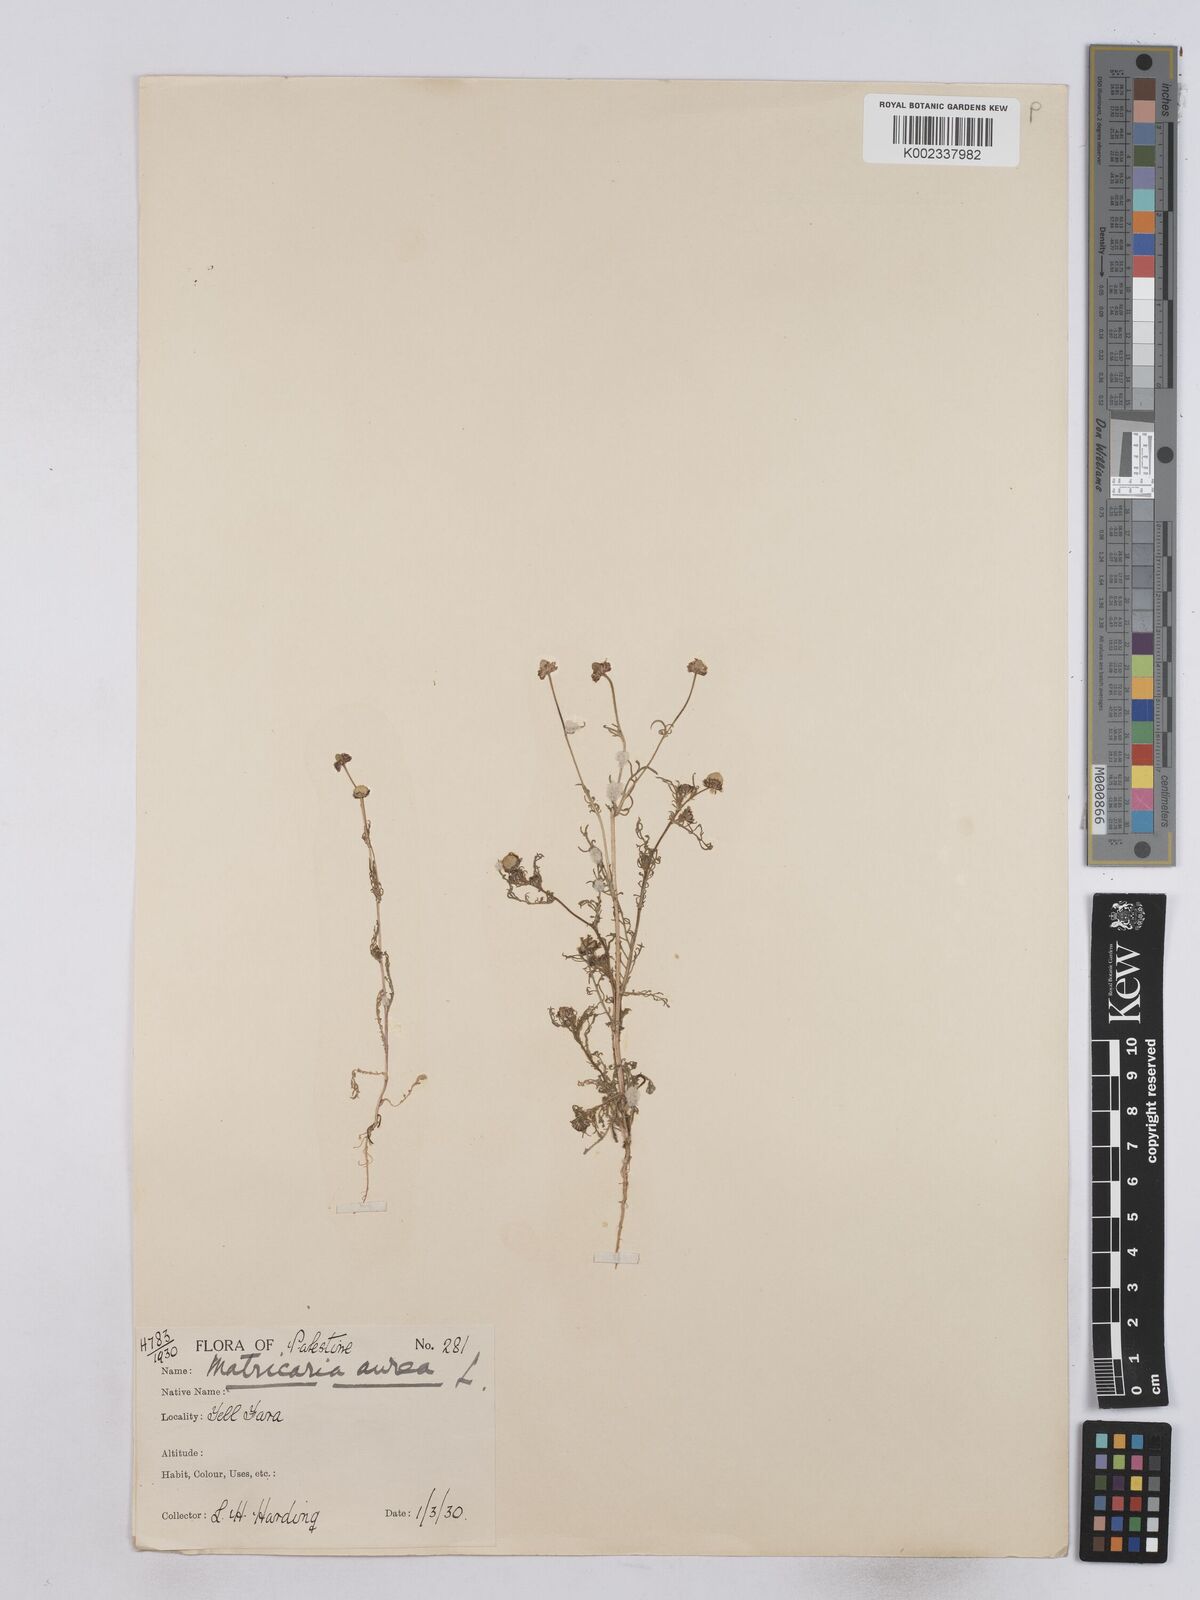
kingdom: Plantae
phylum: Tracheophyta
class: Magnoliopsida
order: Asterales
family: Asteraceae
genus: Matricaria
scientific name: Matricaria aurea
